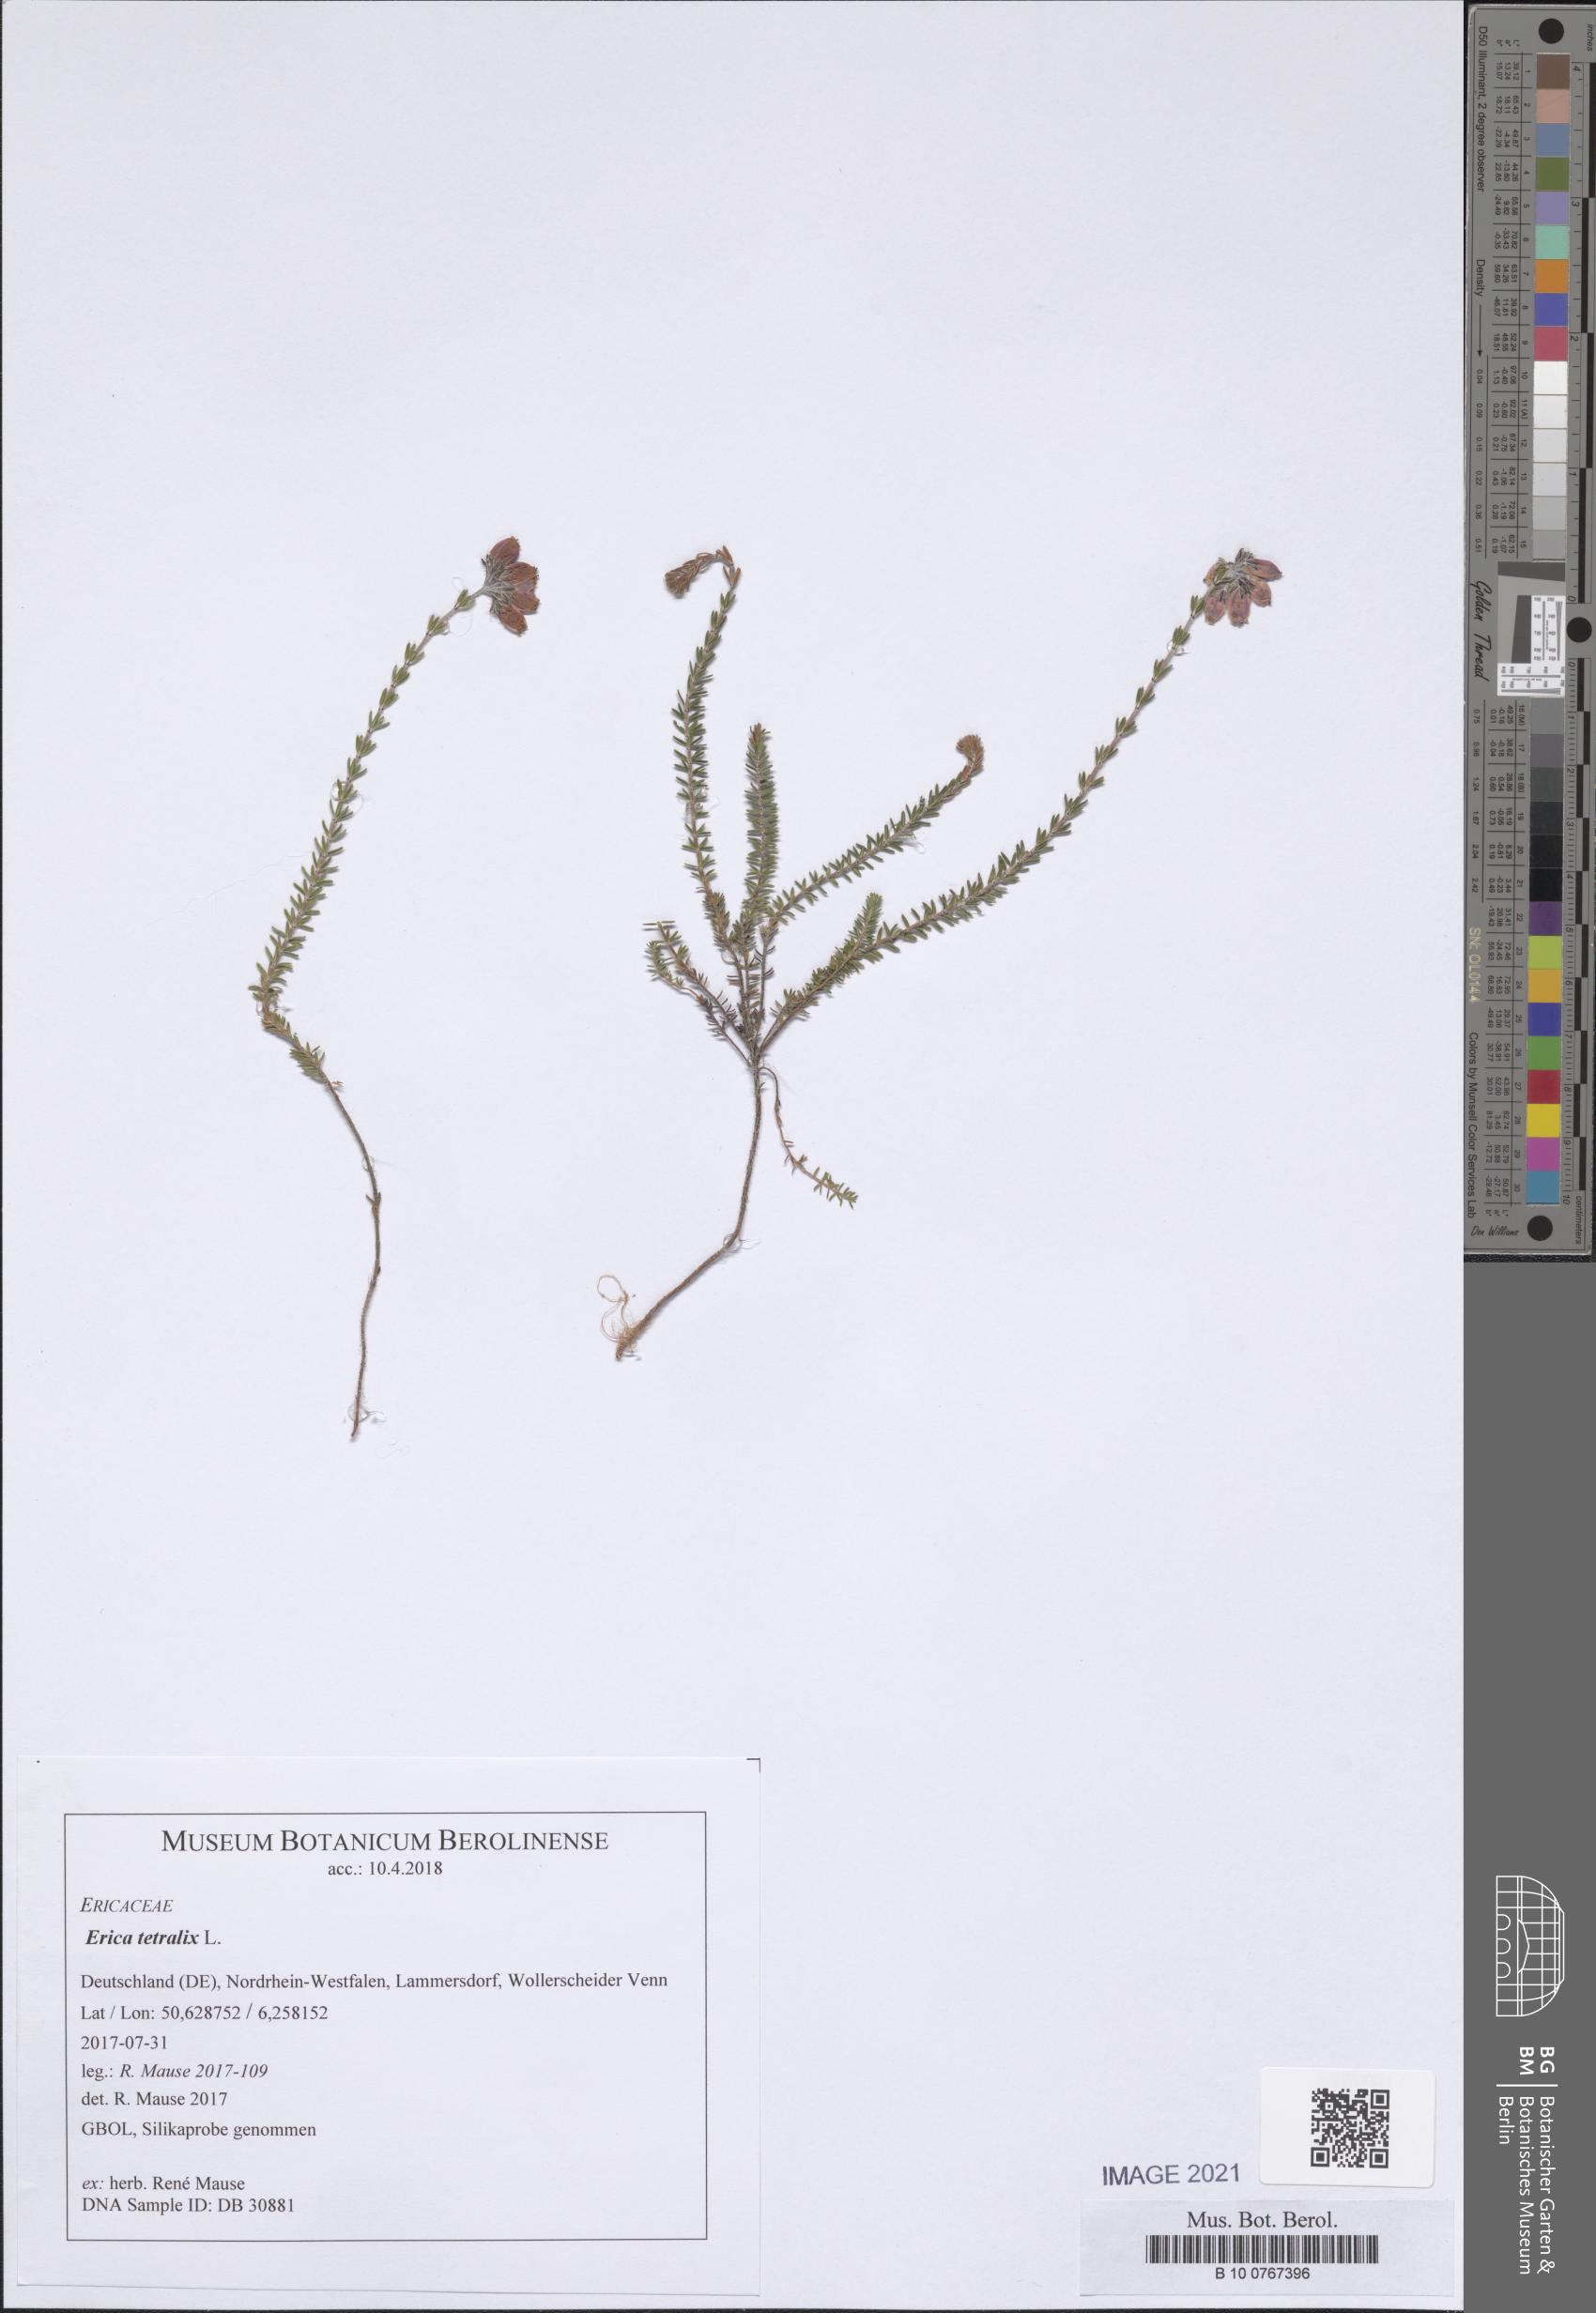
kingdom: Plantae
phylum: Tracheophyta
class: Magnoliopsida
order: Ericales
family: Ericaceae
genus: Erica
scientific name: Erica tetralix
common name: Cross-leaved heath
